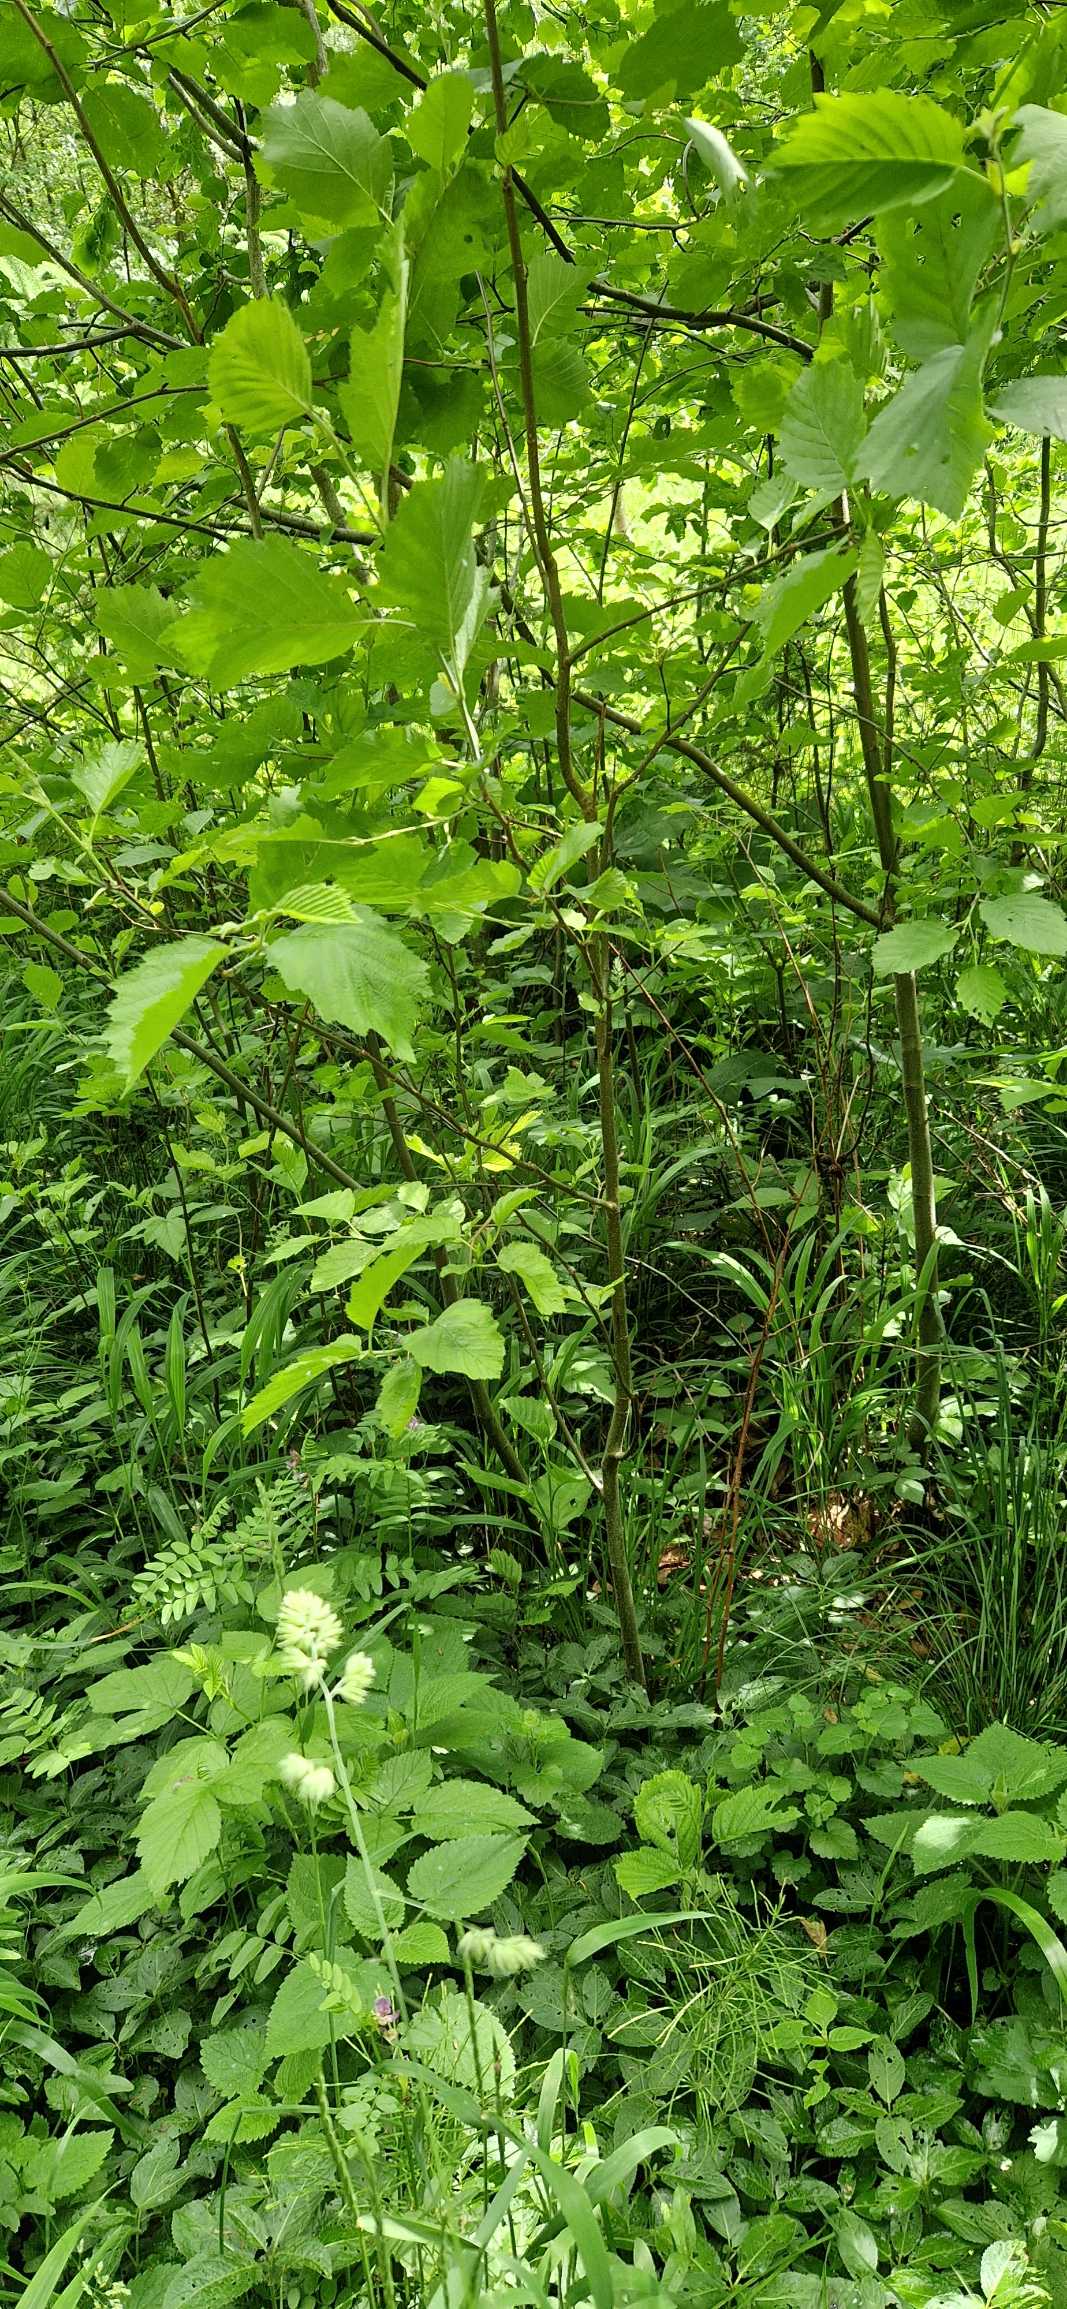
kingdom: Plantae
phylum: Tracheophyta
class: Magnoliopsida
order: Fagales
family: Betulaceae
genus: Alnus
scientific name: Alnus incana
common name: Grå-el/hvid-el
